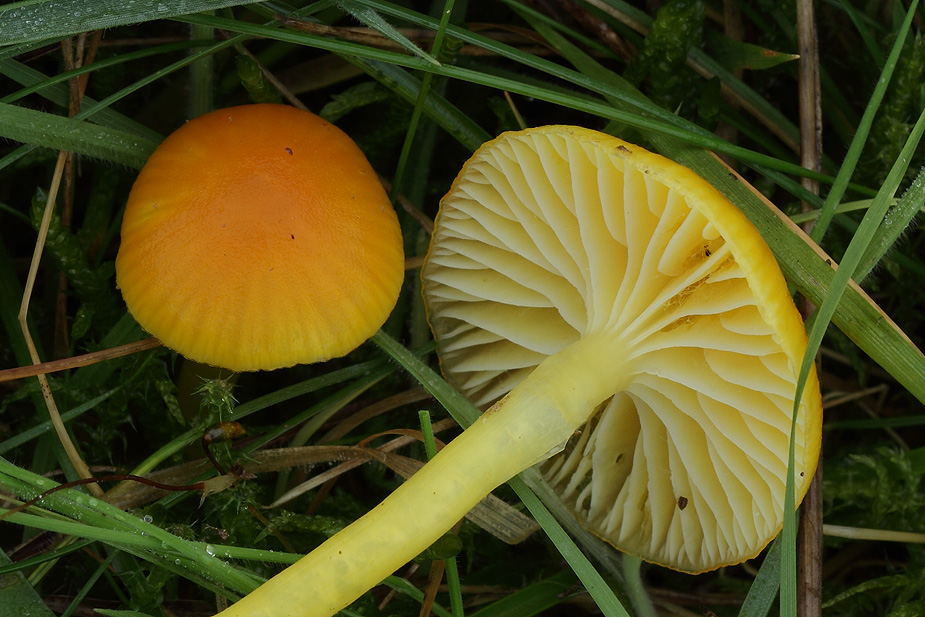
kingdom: Fungi
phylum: Basidiomycota
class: Agaricomycetes
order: Agaricales
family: Hygrophoraceae
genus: Hygrocybe
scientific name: Hygrocybe ceracea
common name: voksgul vokshat
